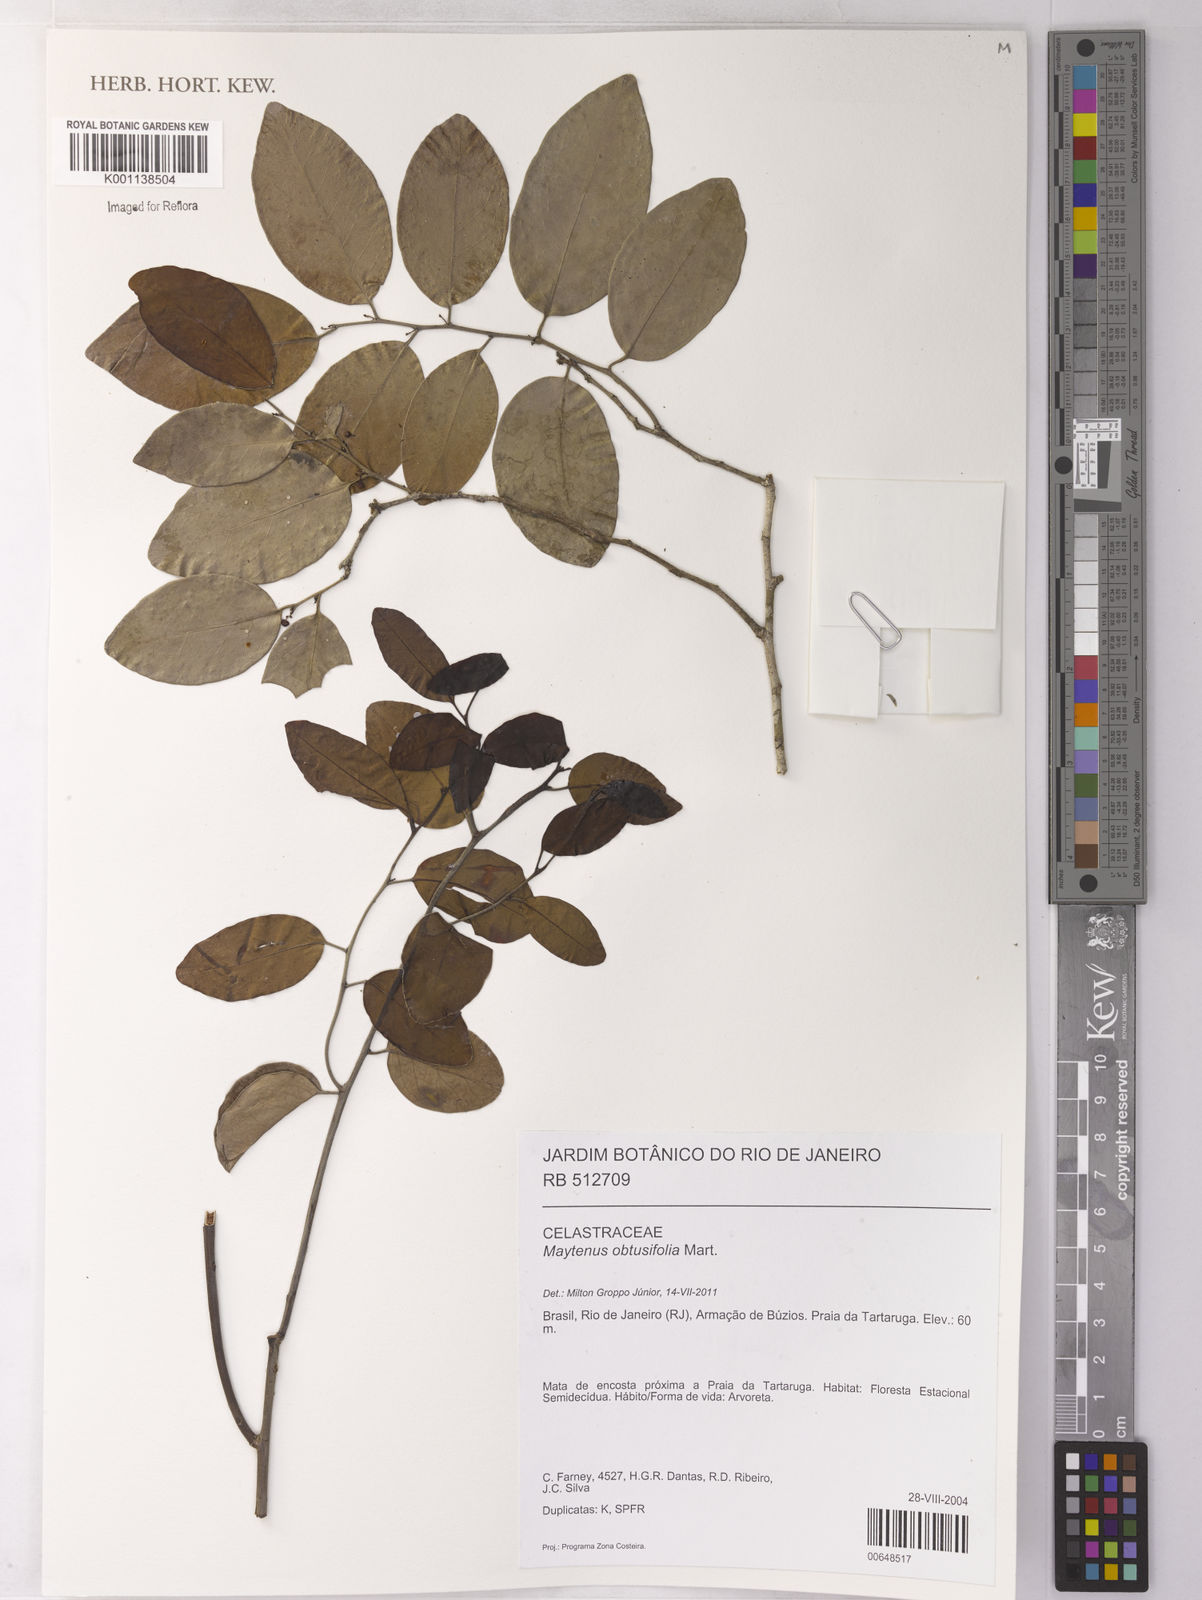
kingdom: Plantae
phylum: Tracheophyta
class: Magnoliopsida
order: Celastrales
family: Celastraceae
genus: Monteverdia
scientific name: Monteverdia obtusifolia
